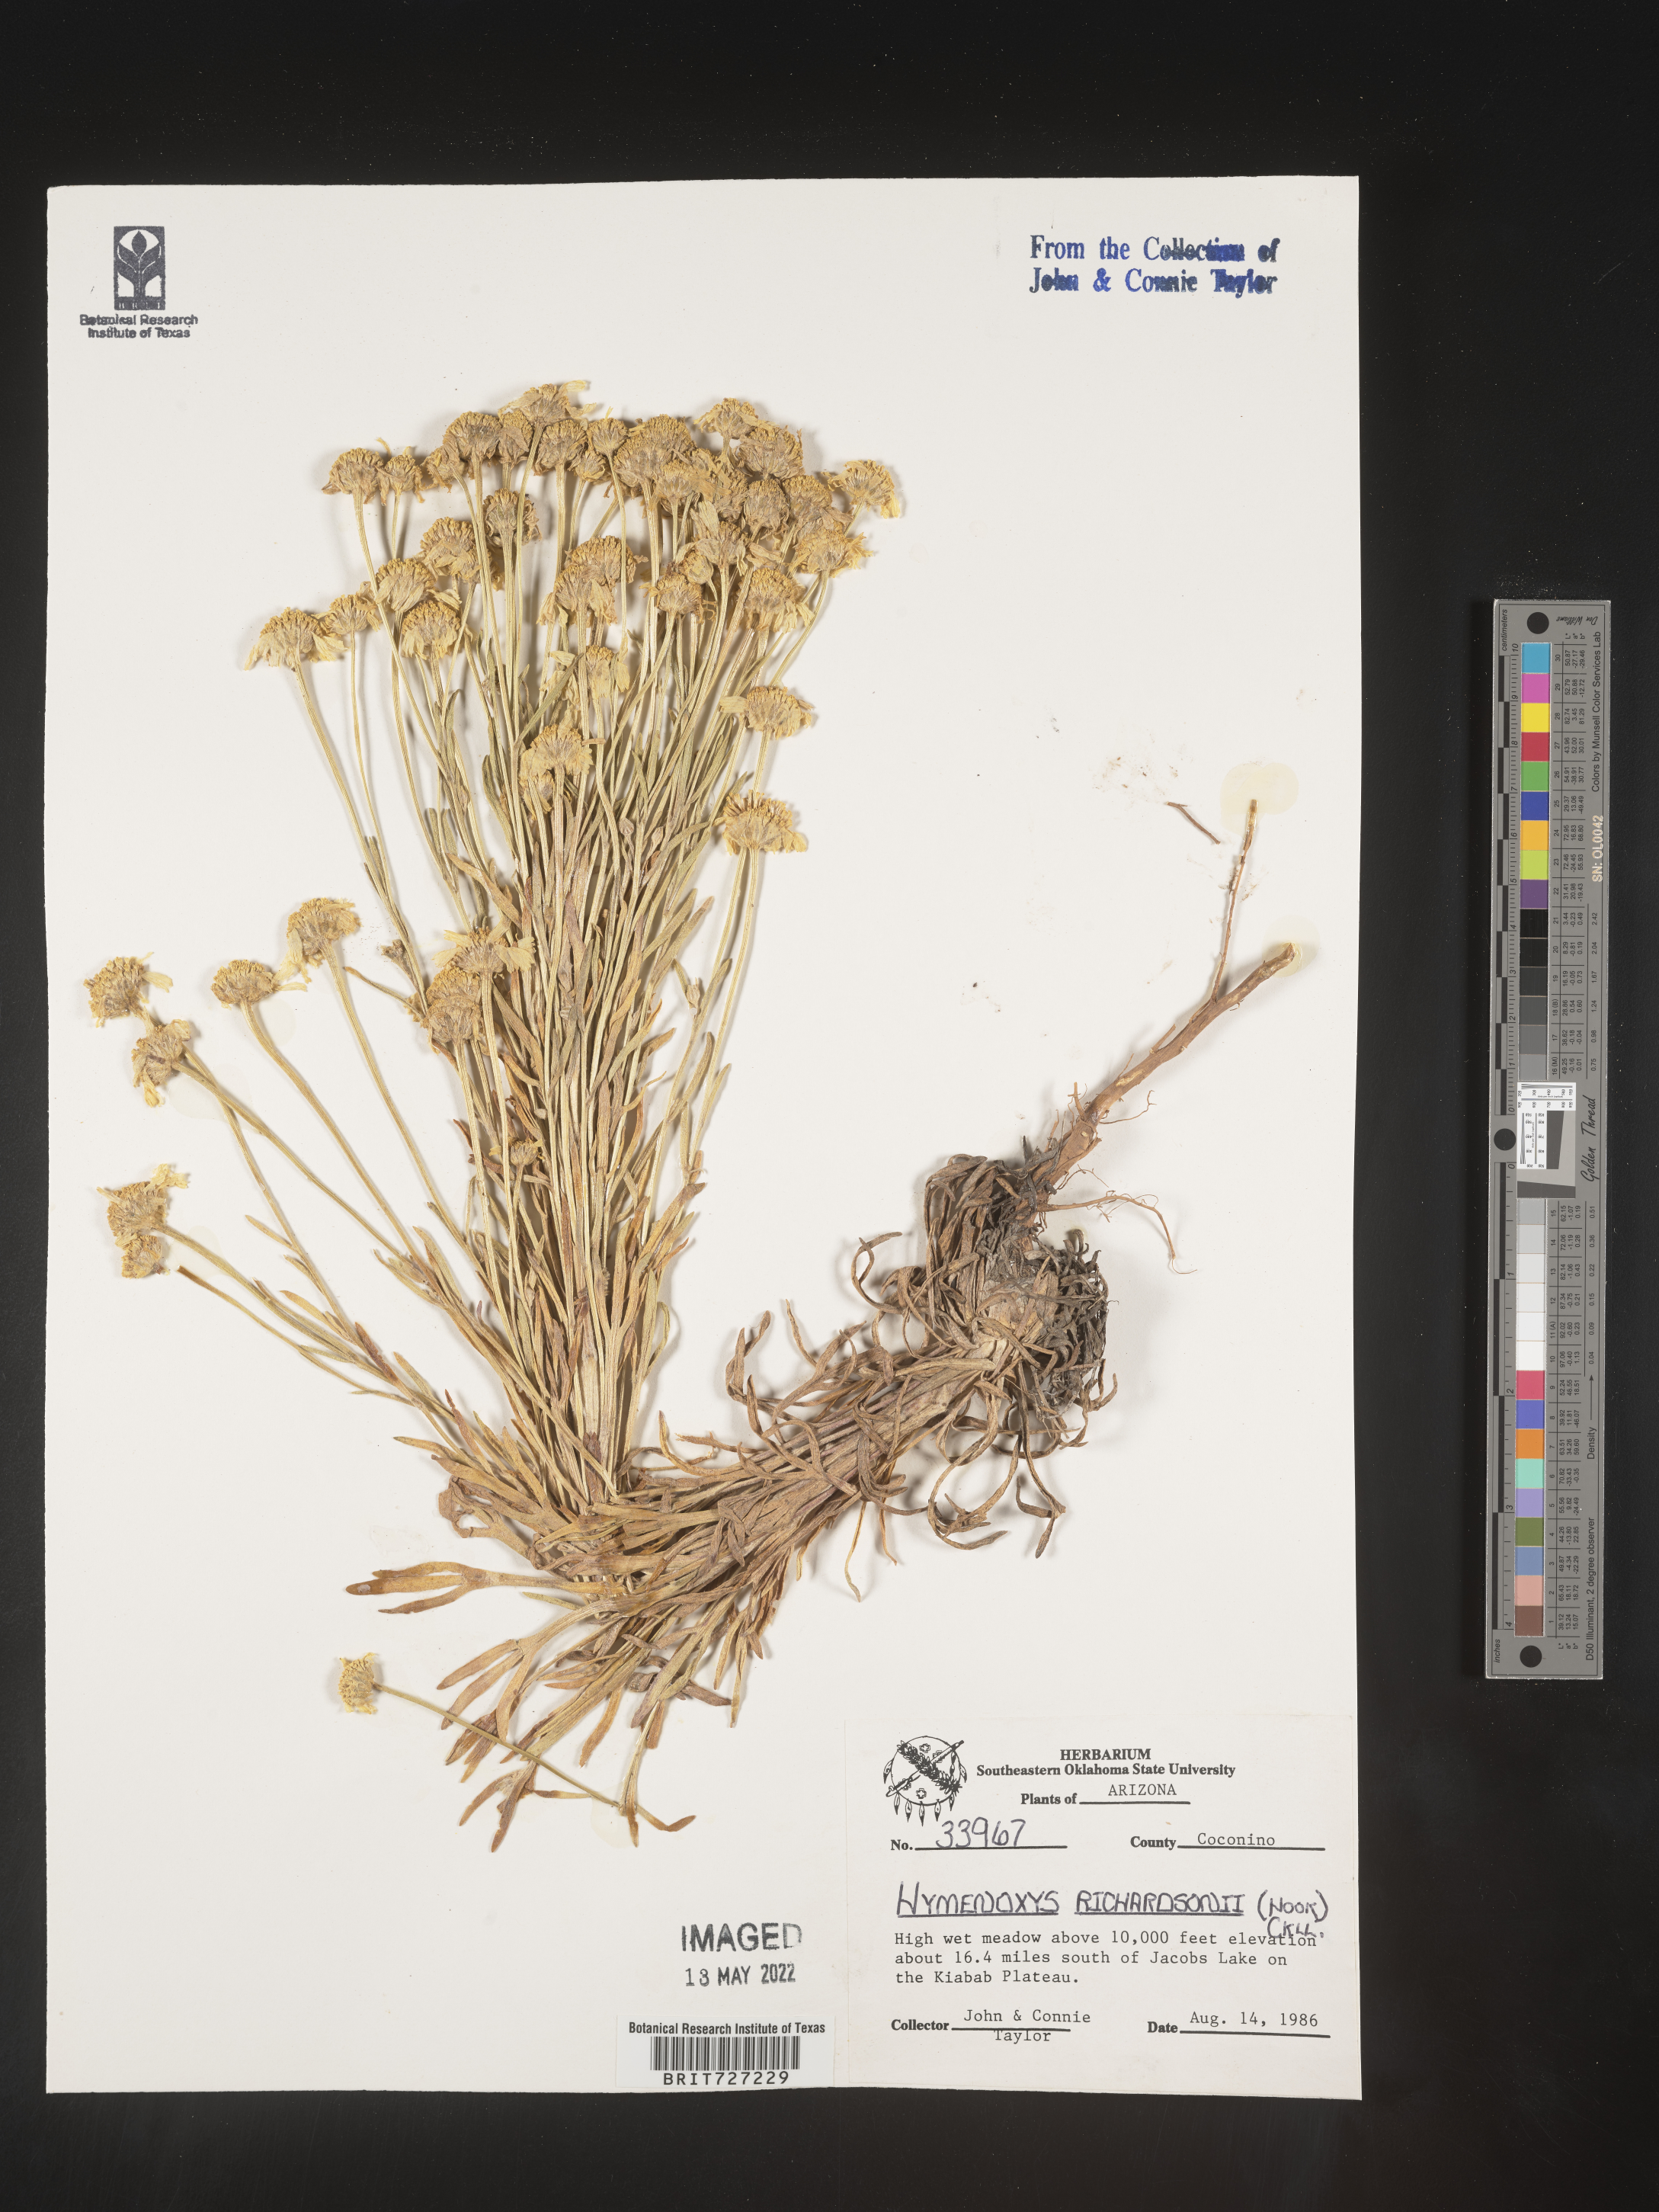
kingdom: Plantae
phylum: Tracheophyta
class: Magnoliopsida
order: Asterales
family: Asteraceae
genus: Hymenoxys
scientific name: Hymenoxys richardsonii
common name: Pingue rubberweed
